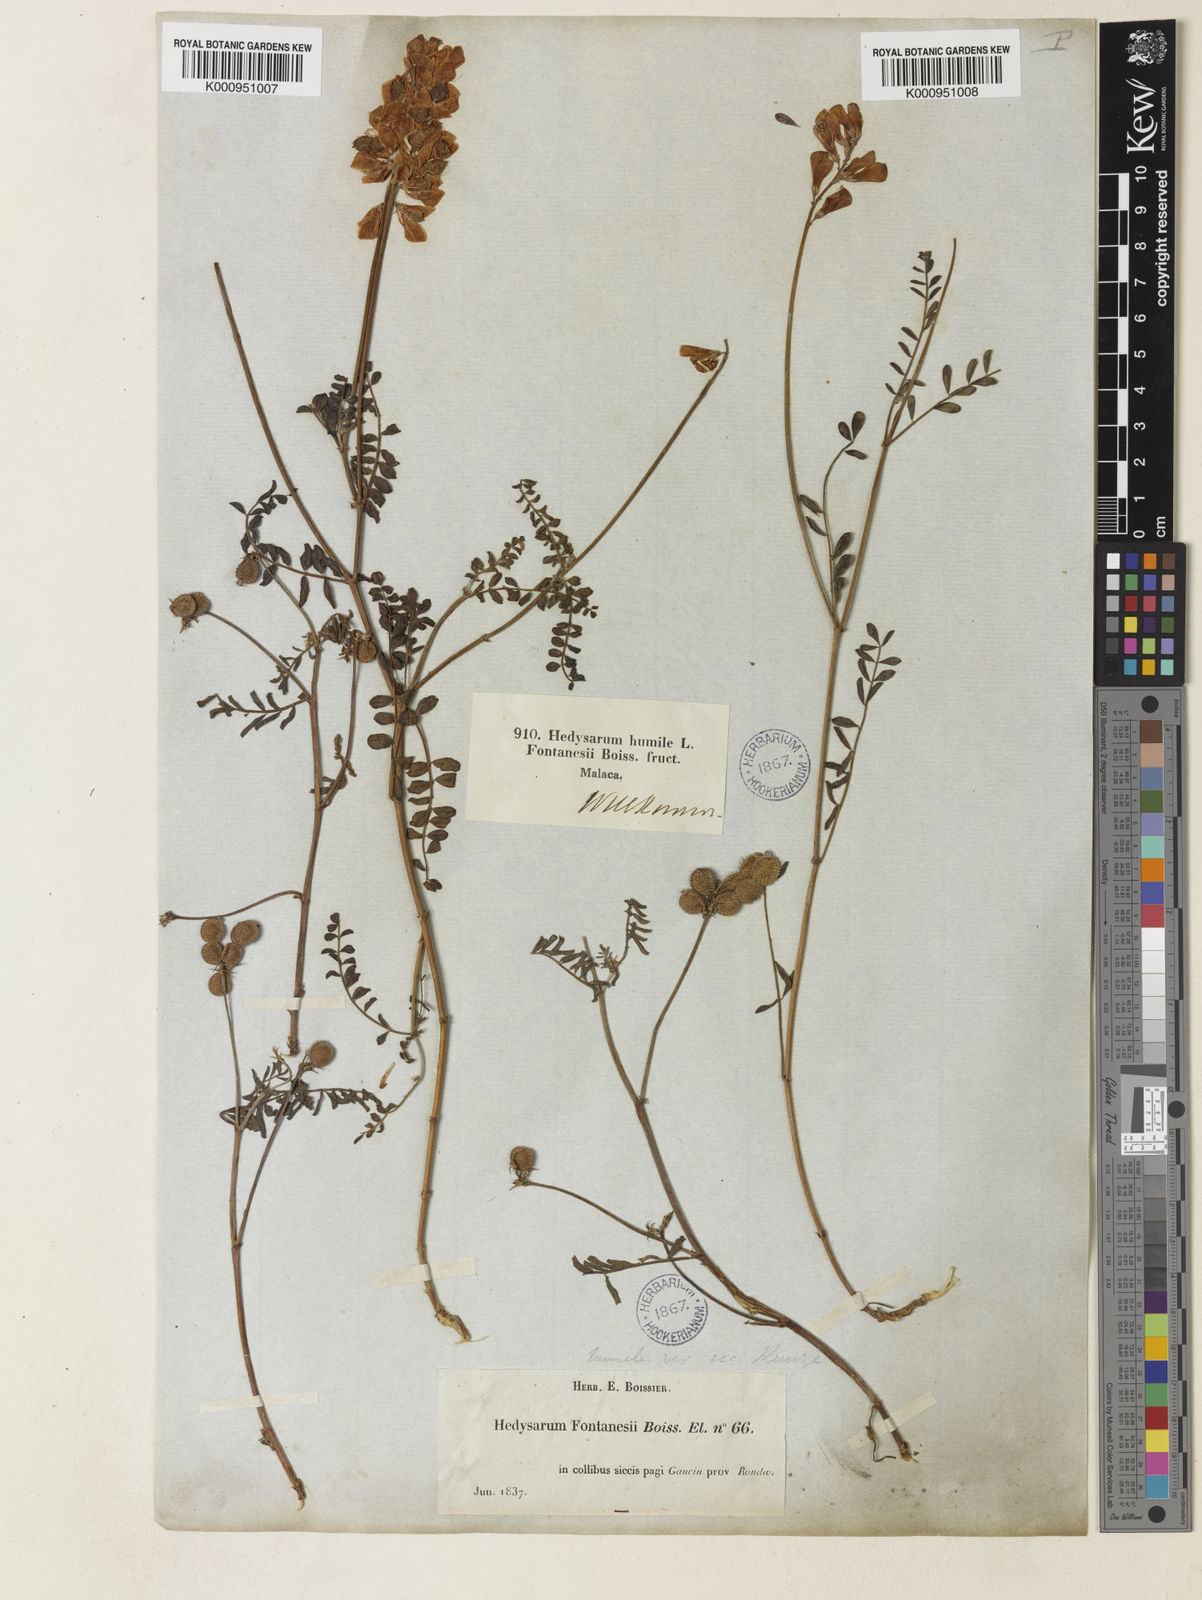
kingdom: Plantae
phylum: Tracheophyta
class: Magnoliopsida
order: Fabales
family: Fabaceae
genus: Onobrychis
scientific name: Onobrychis humilis
